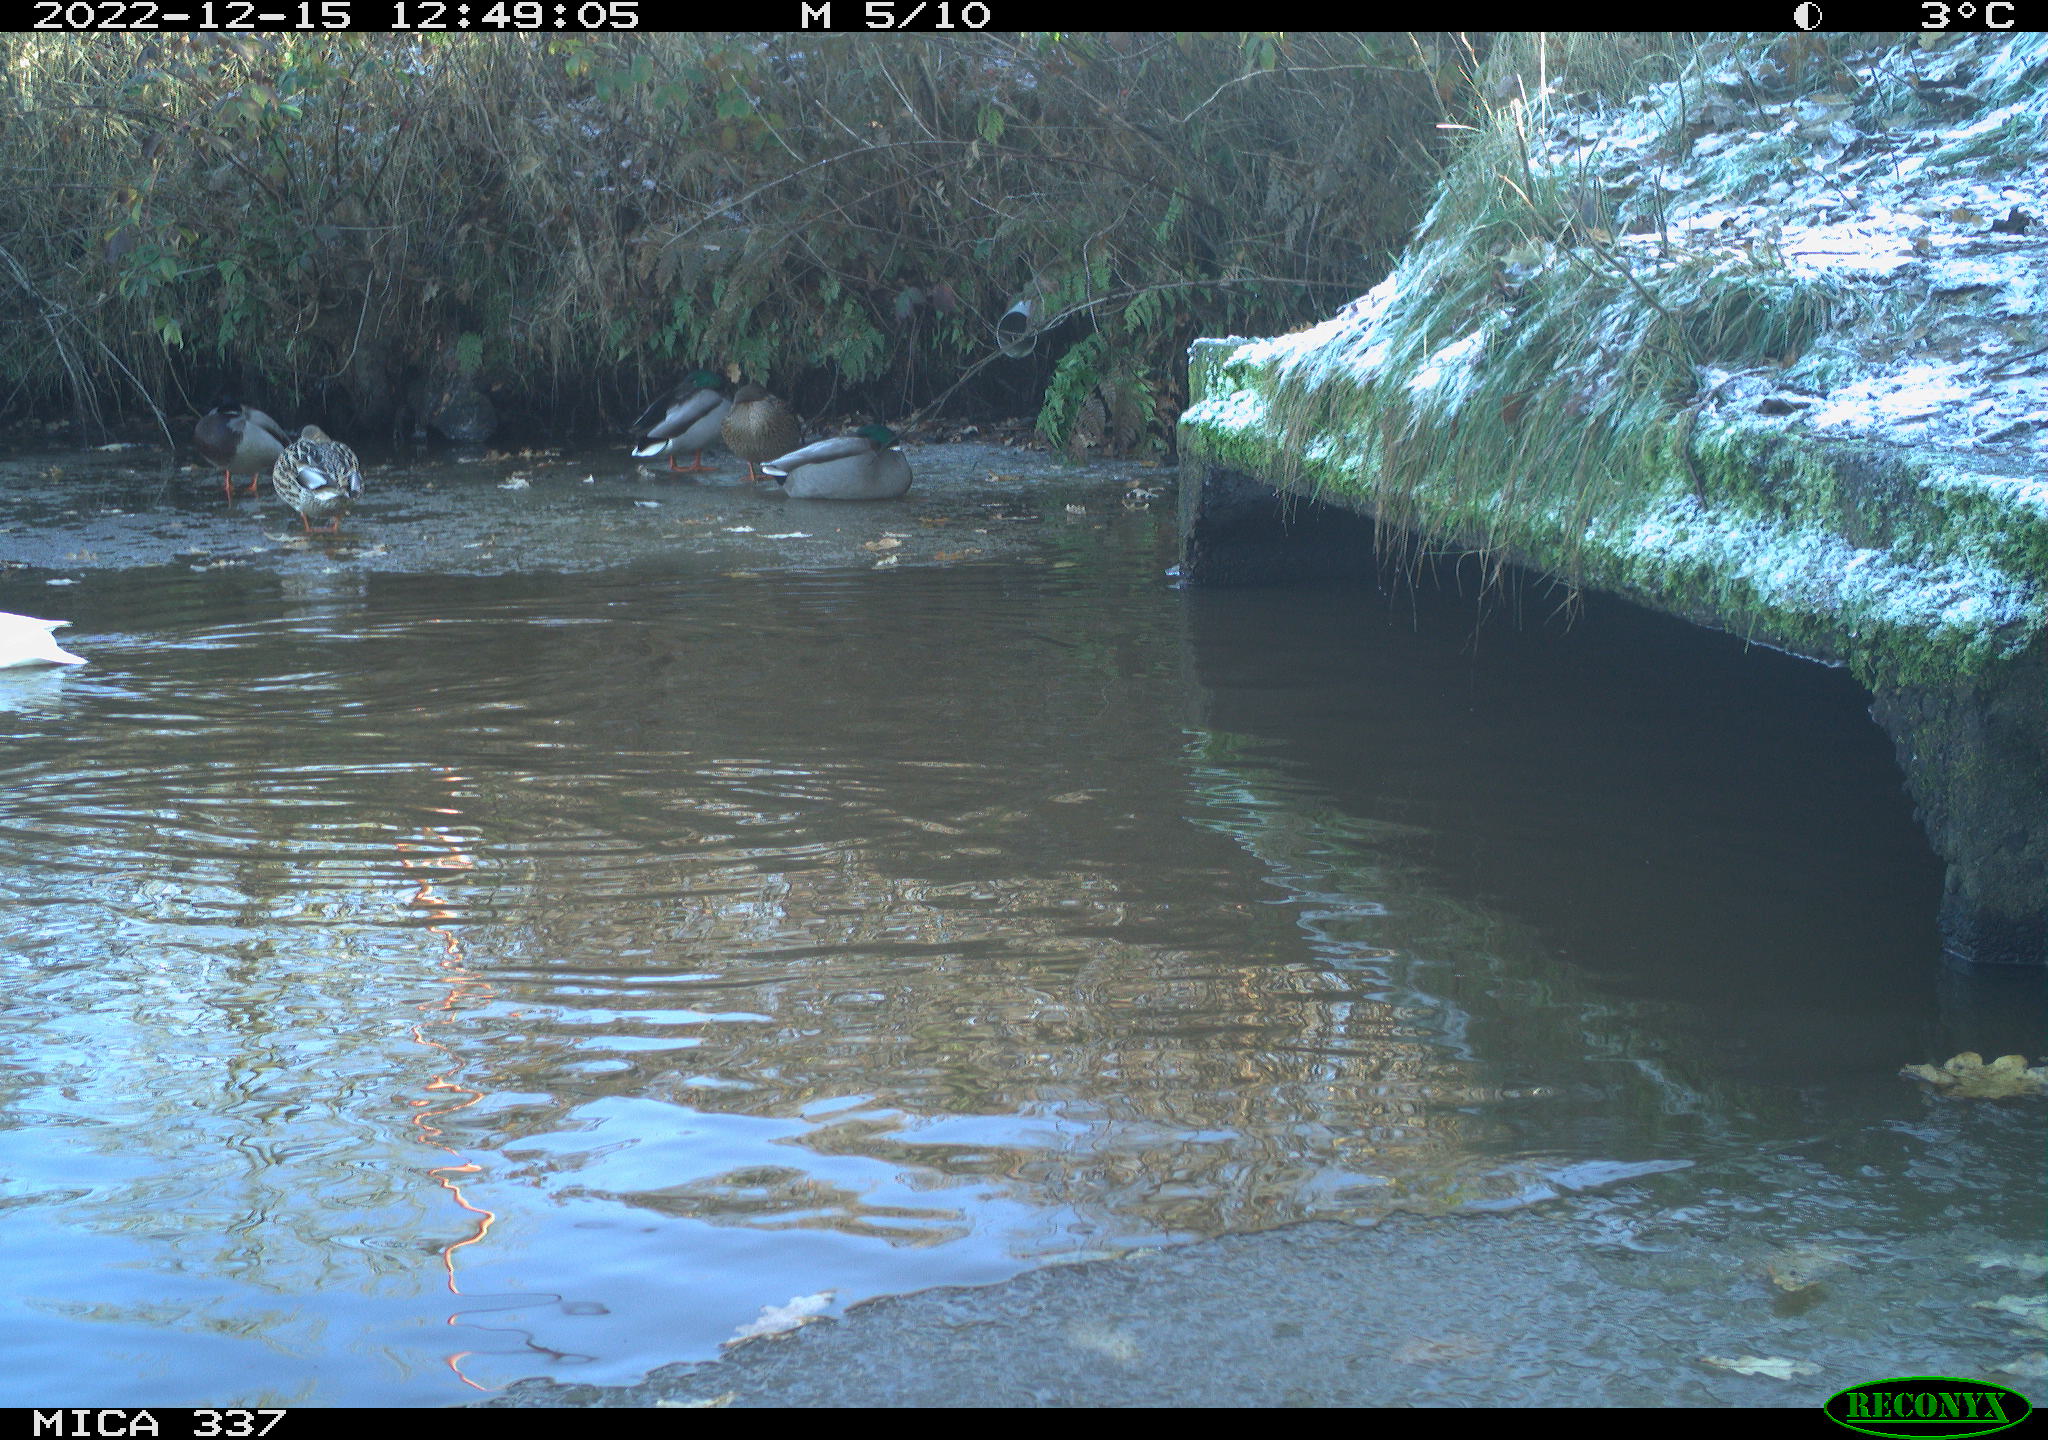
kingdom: Animalia
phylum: Chordata
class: Aves
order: Charadriiformes
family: Laridae
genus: Chroicocephalus
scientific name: Chroicocephalus ridibundus
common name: Black-headed gull
